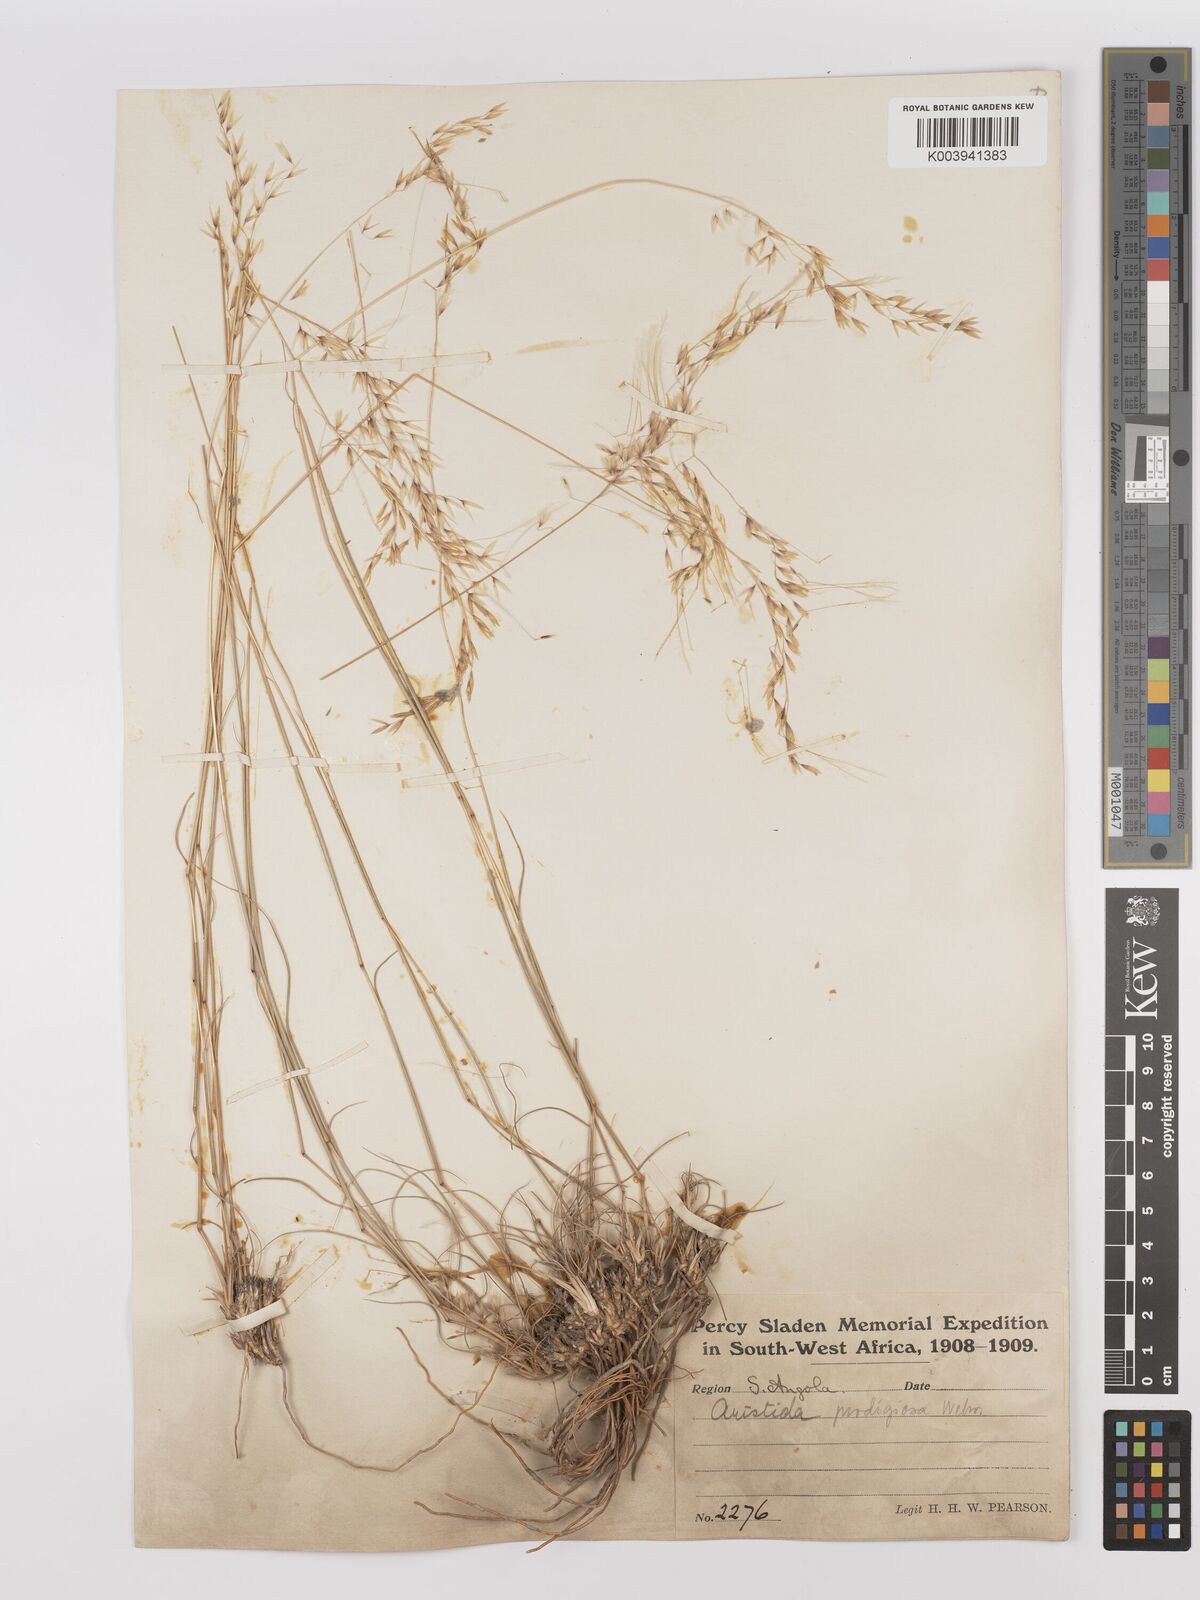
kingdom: Plantae
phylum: Tracheophyta
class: Liliopsida
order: Poales
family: Poaceae
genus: Stipagrostis
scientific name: Stipagrostis prodigiosa
